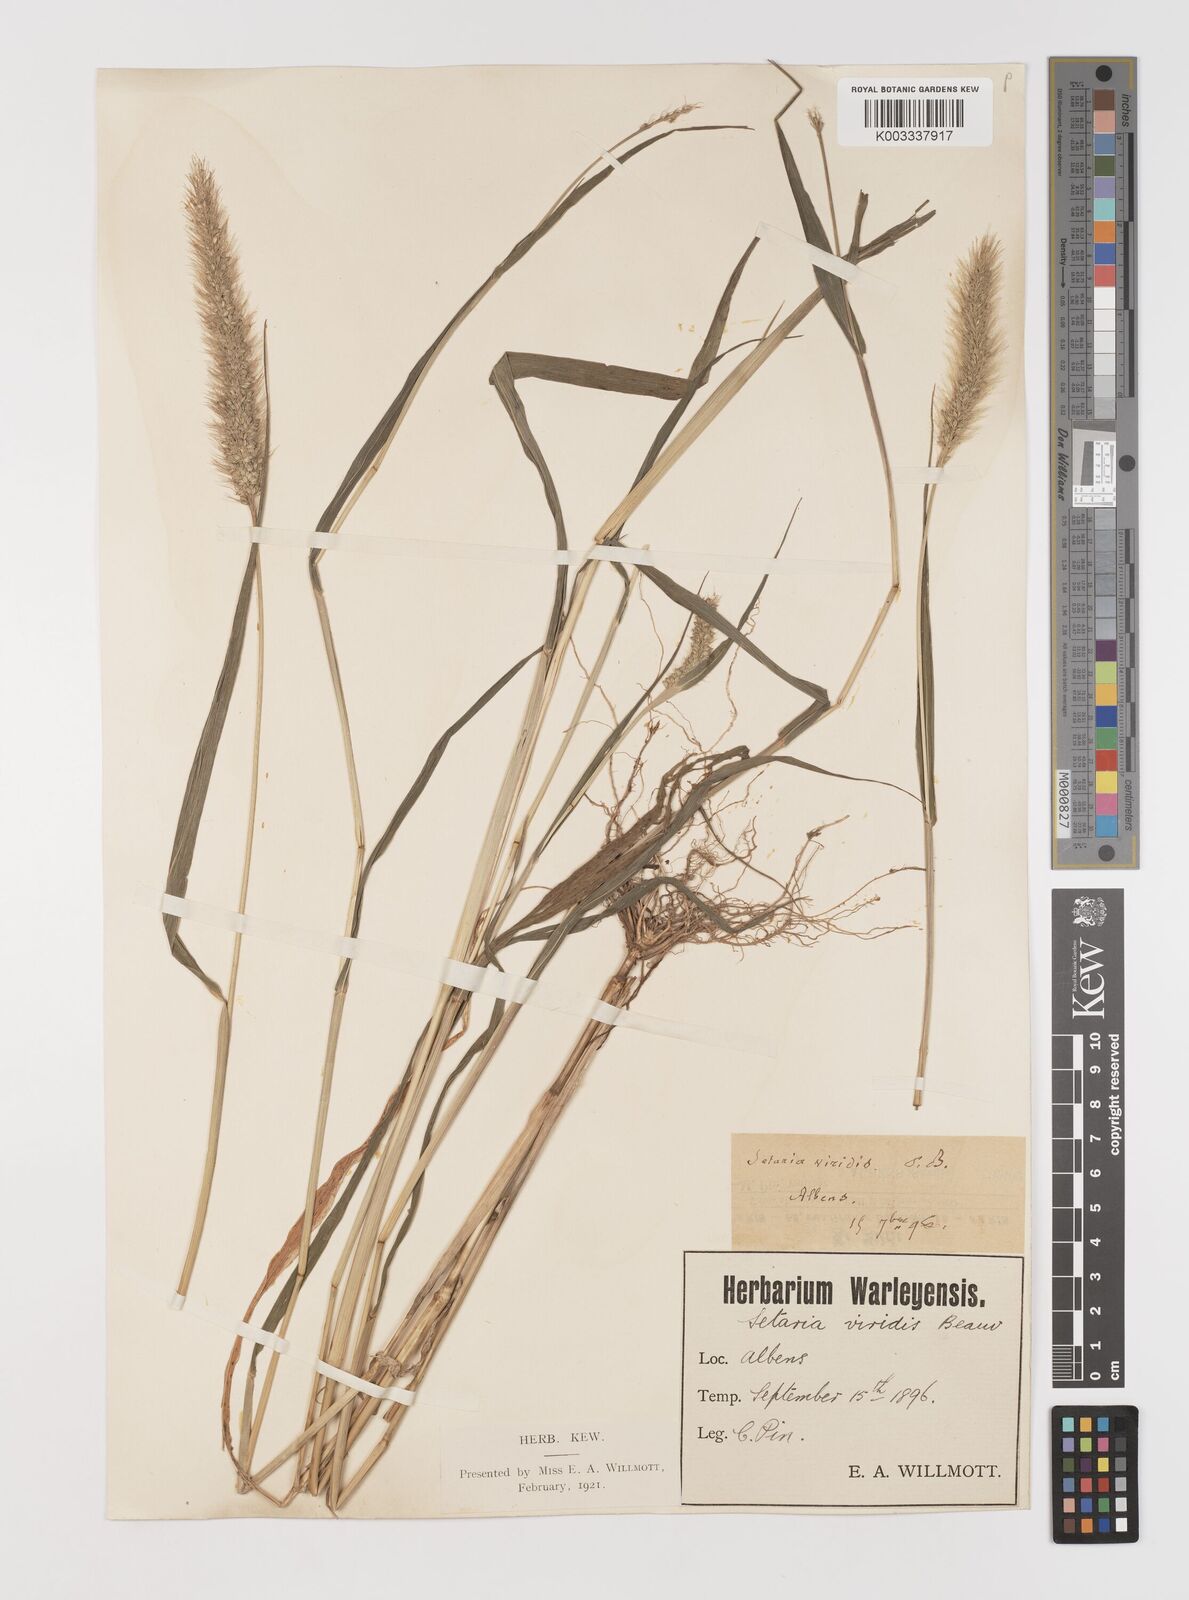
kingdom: Plantae
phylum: Tracheophyta
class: Liliopsida
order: Poales
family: Poaceae
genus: Setaria
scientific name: Setaria viridis
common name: Green bristlegrass
